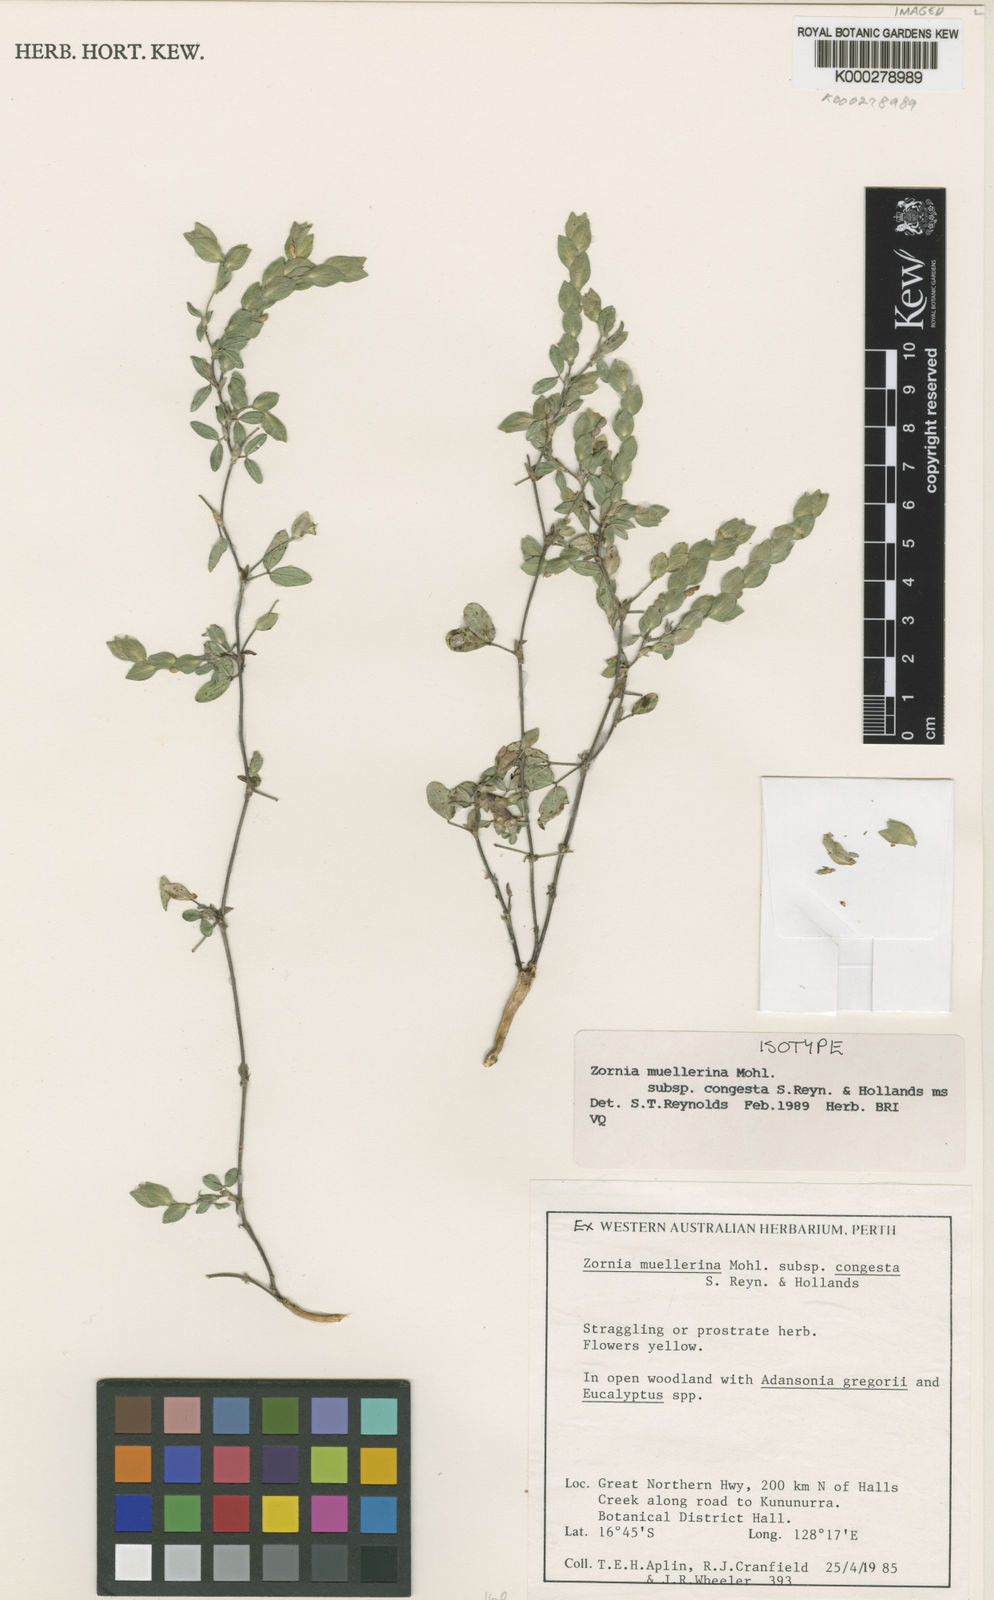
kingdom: Plantae
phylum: Tracheophyta
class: Magnoliopsida
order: Fabales
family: Fabaceae
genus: Zornia
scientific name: Zornia muelleriana
